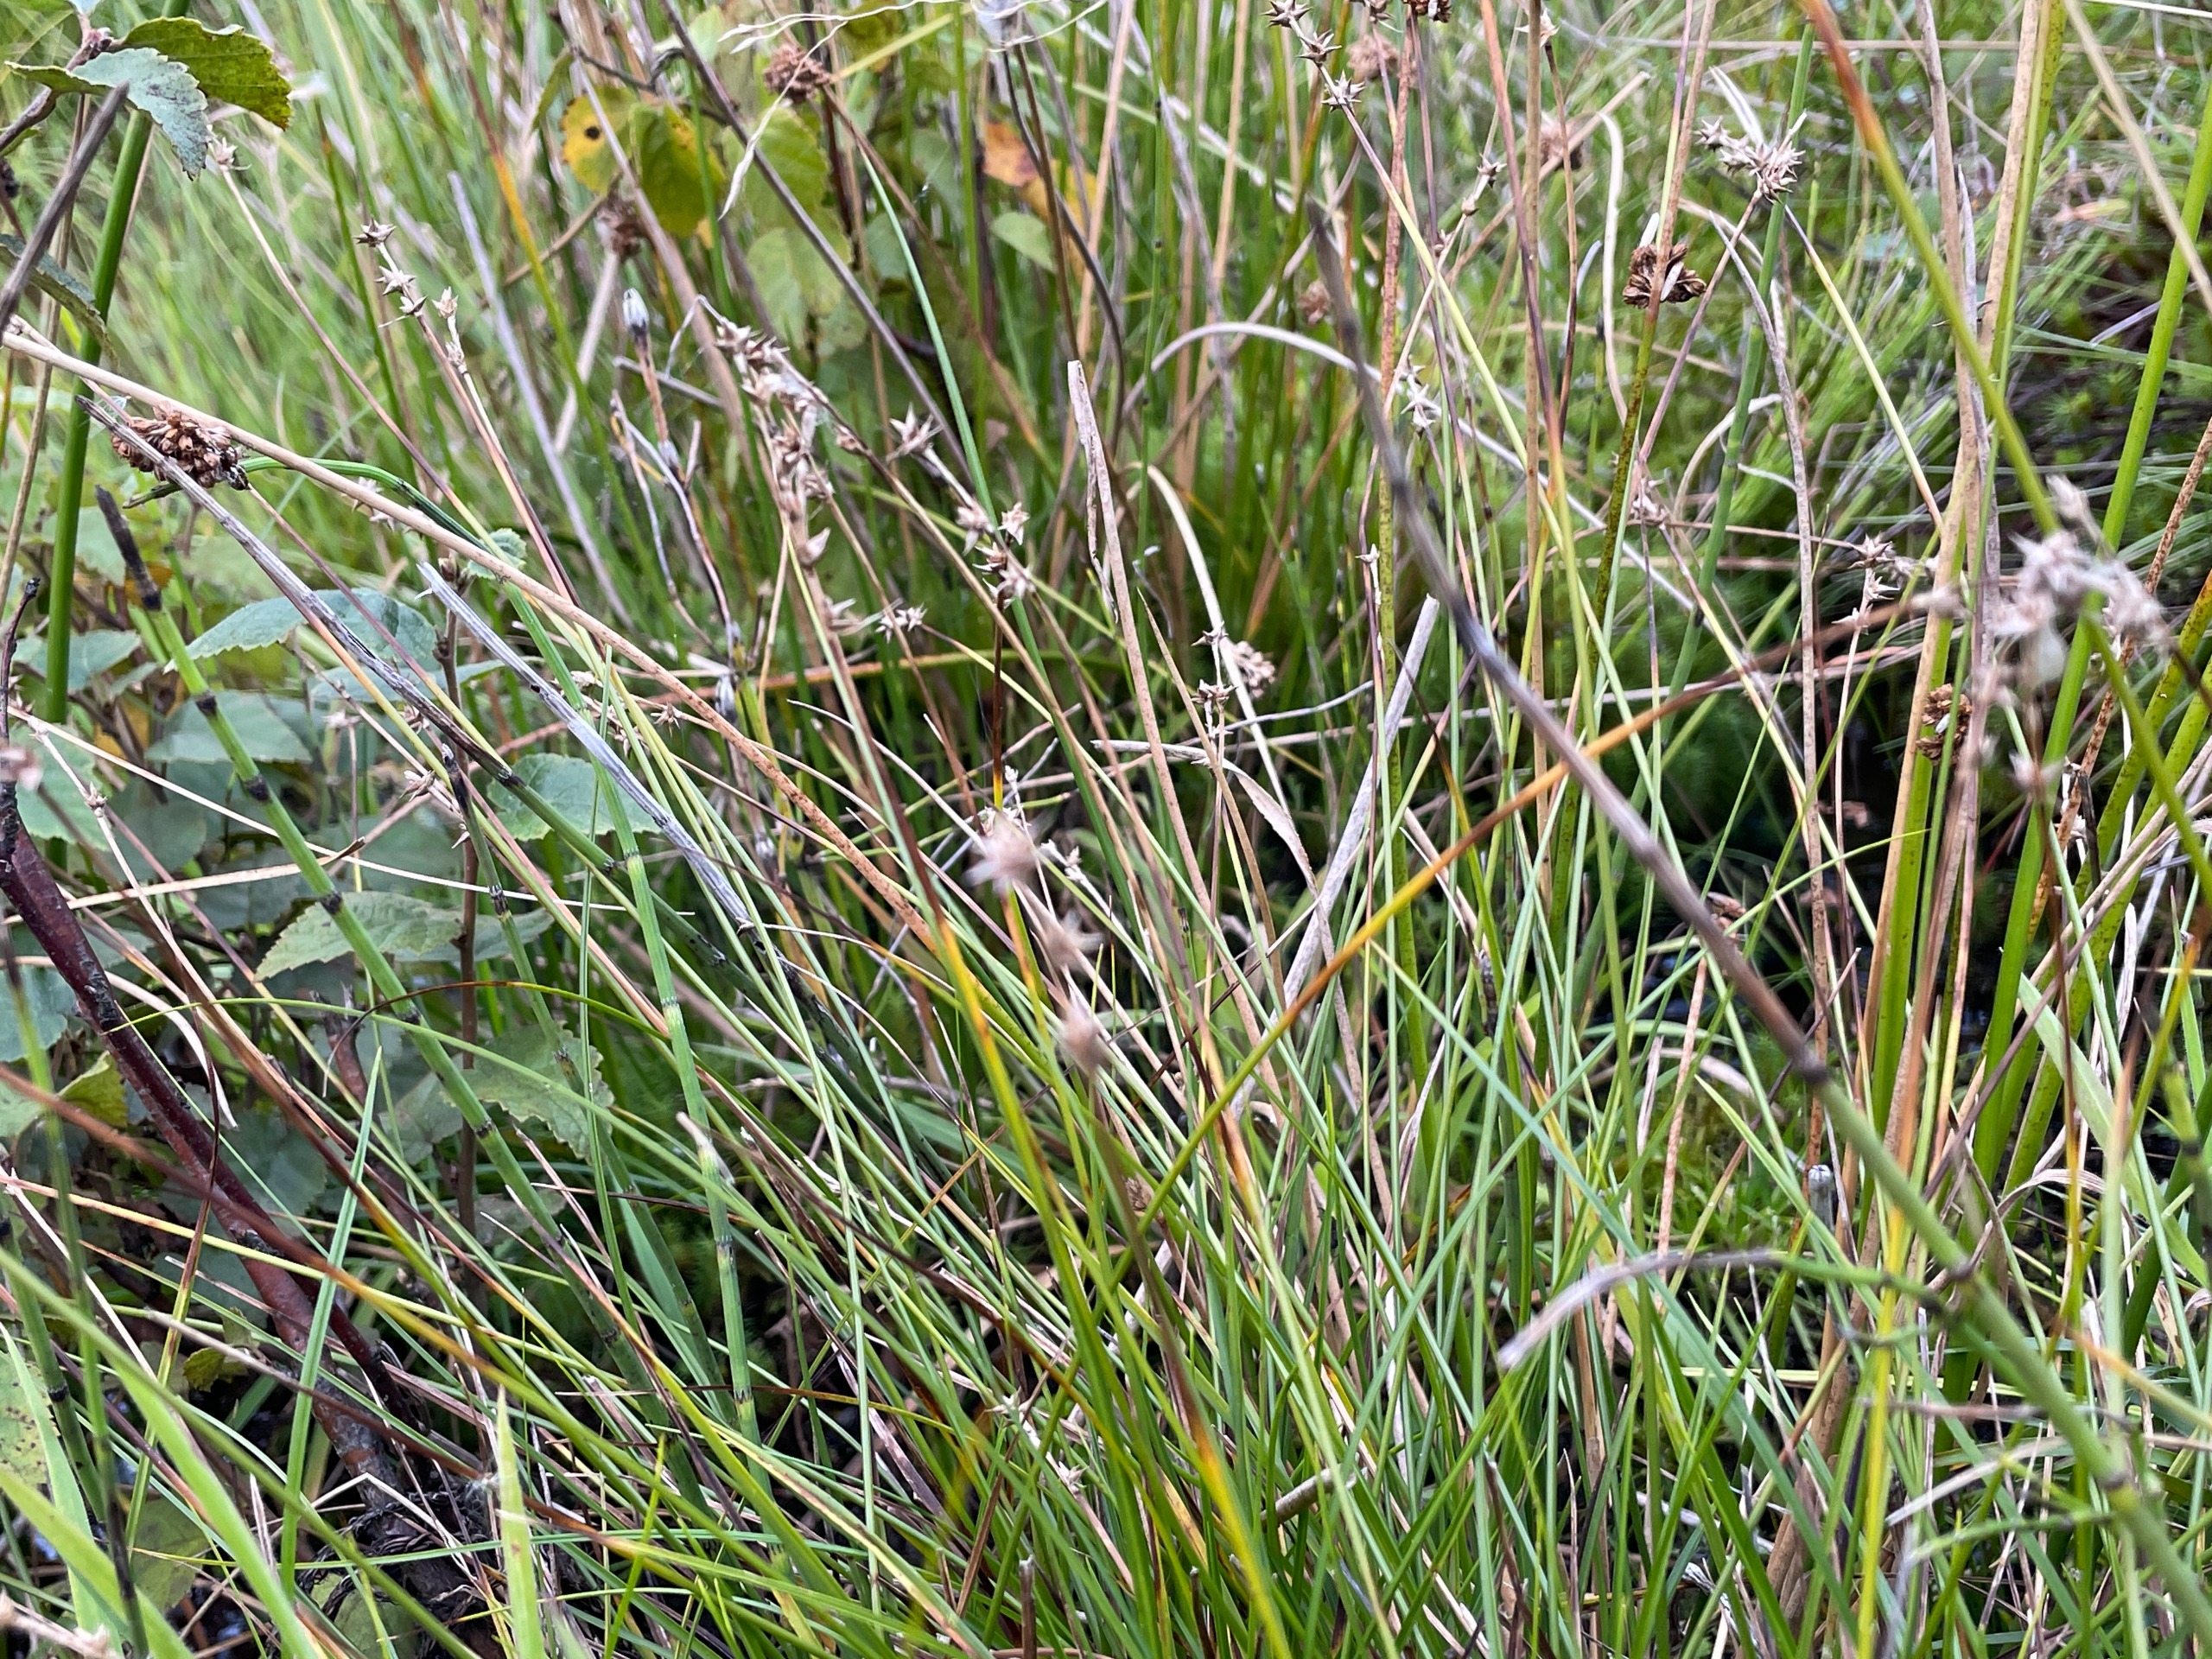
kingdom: Plantae
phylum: Tracheophyta
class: Liliopsida
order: Poales
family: Cyperaceae
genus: Carex
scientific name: Carex echinata
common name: Stjerne-star
